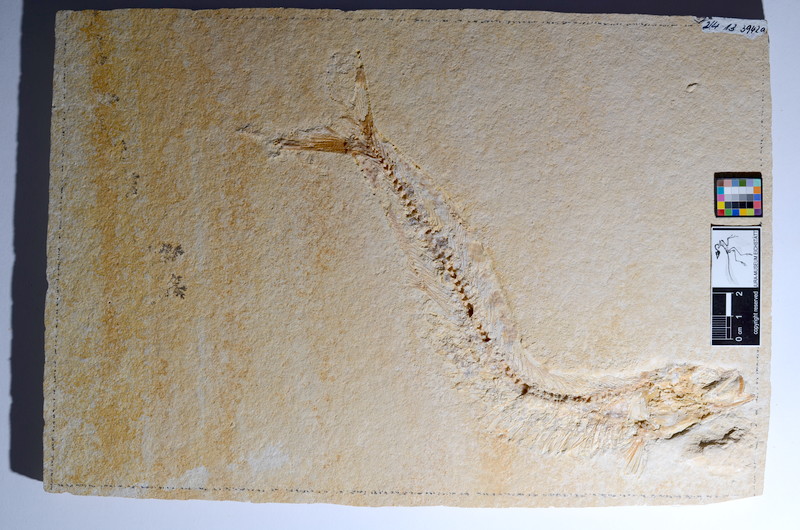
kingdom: Animalia
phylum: Chordata
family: Allothrissopidae
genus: Allothrissops
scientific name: Allothrissops mesogaster
